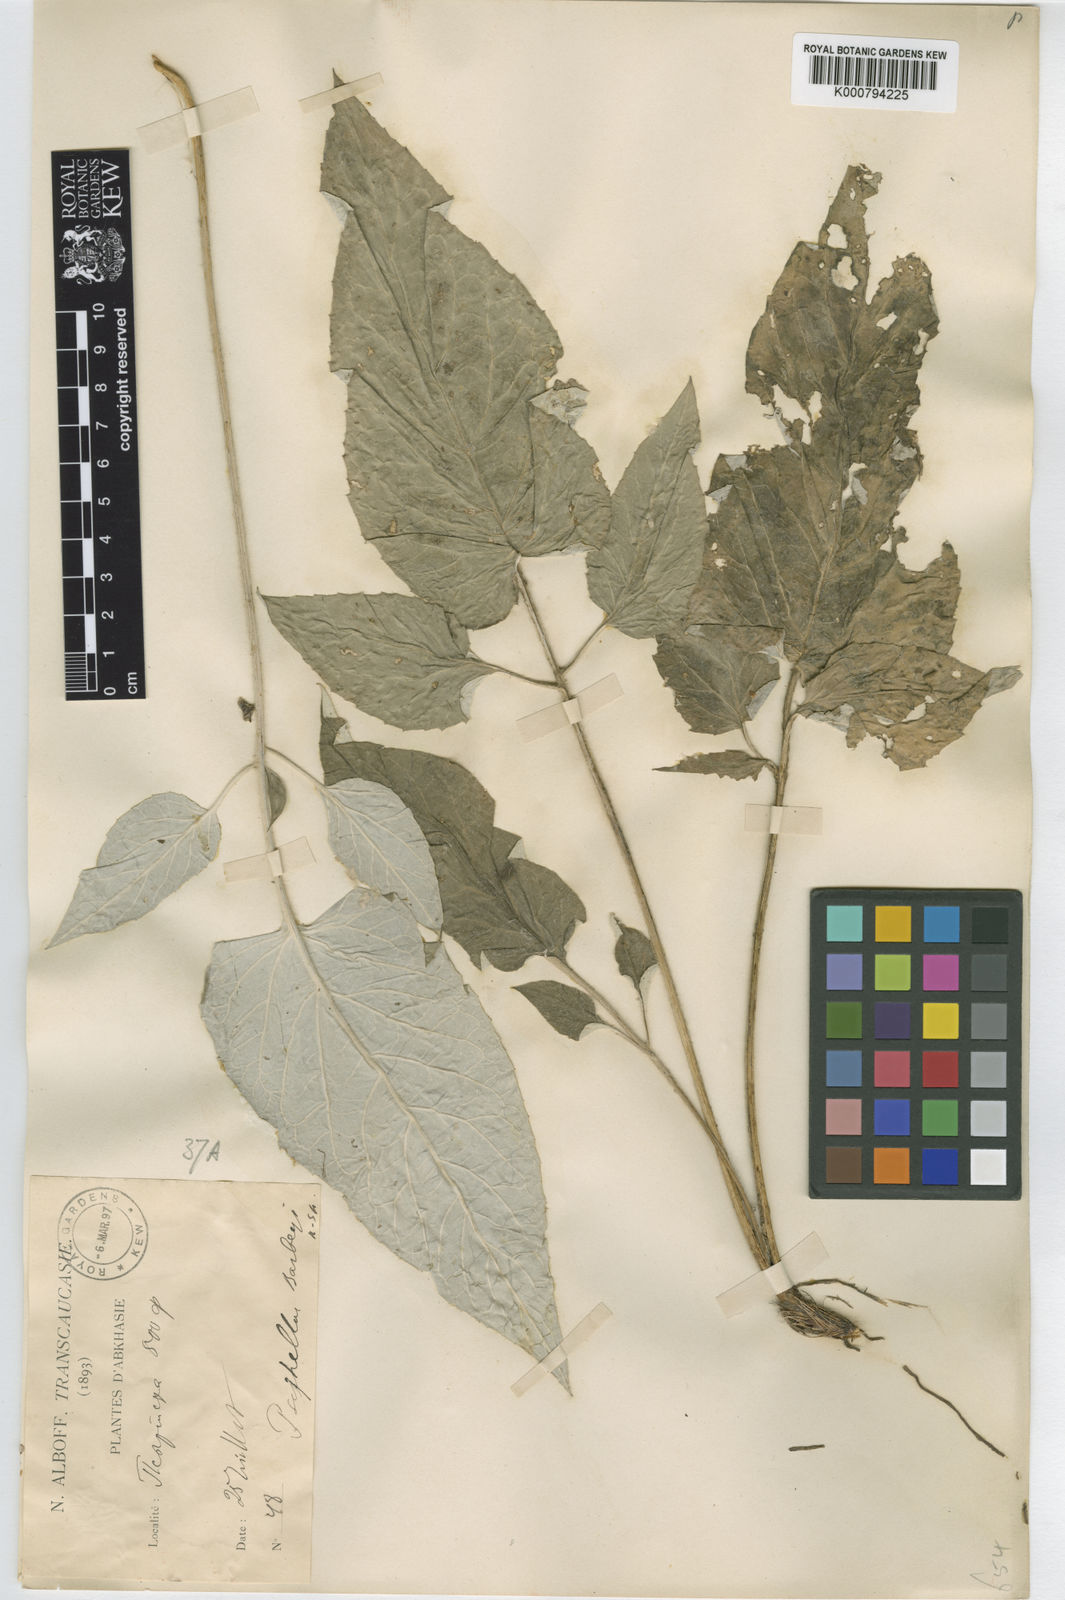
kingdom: Plantae
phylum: Tracheophyta
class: Magnoliopsida
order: Asterales
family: Asteraceae
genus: Psephellus
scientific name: Psephellus barbeyi
